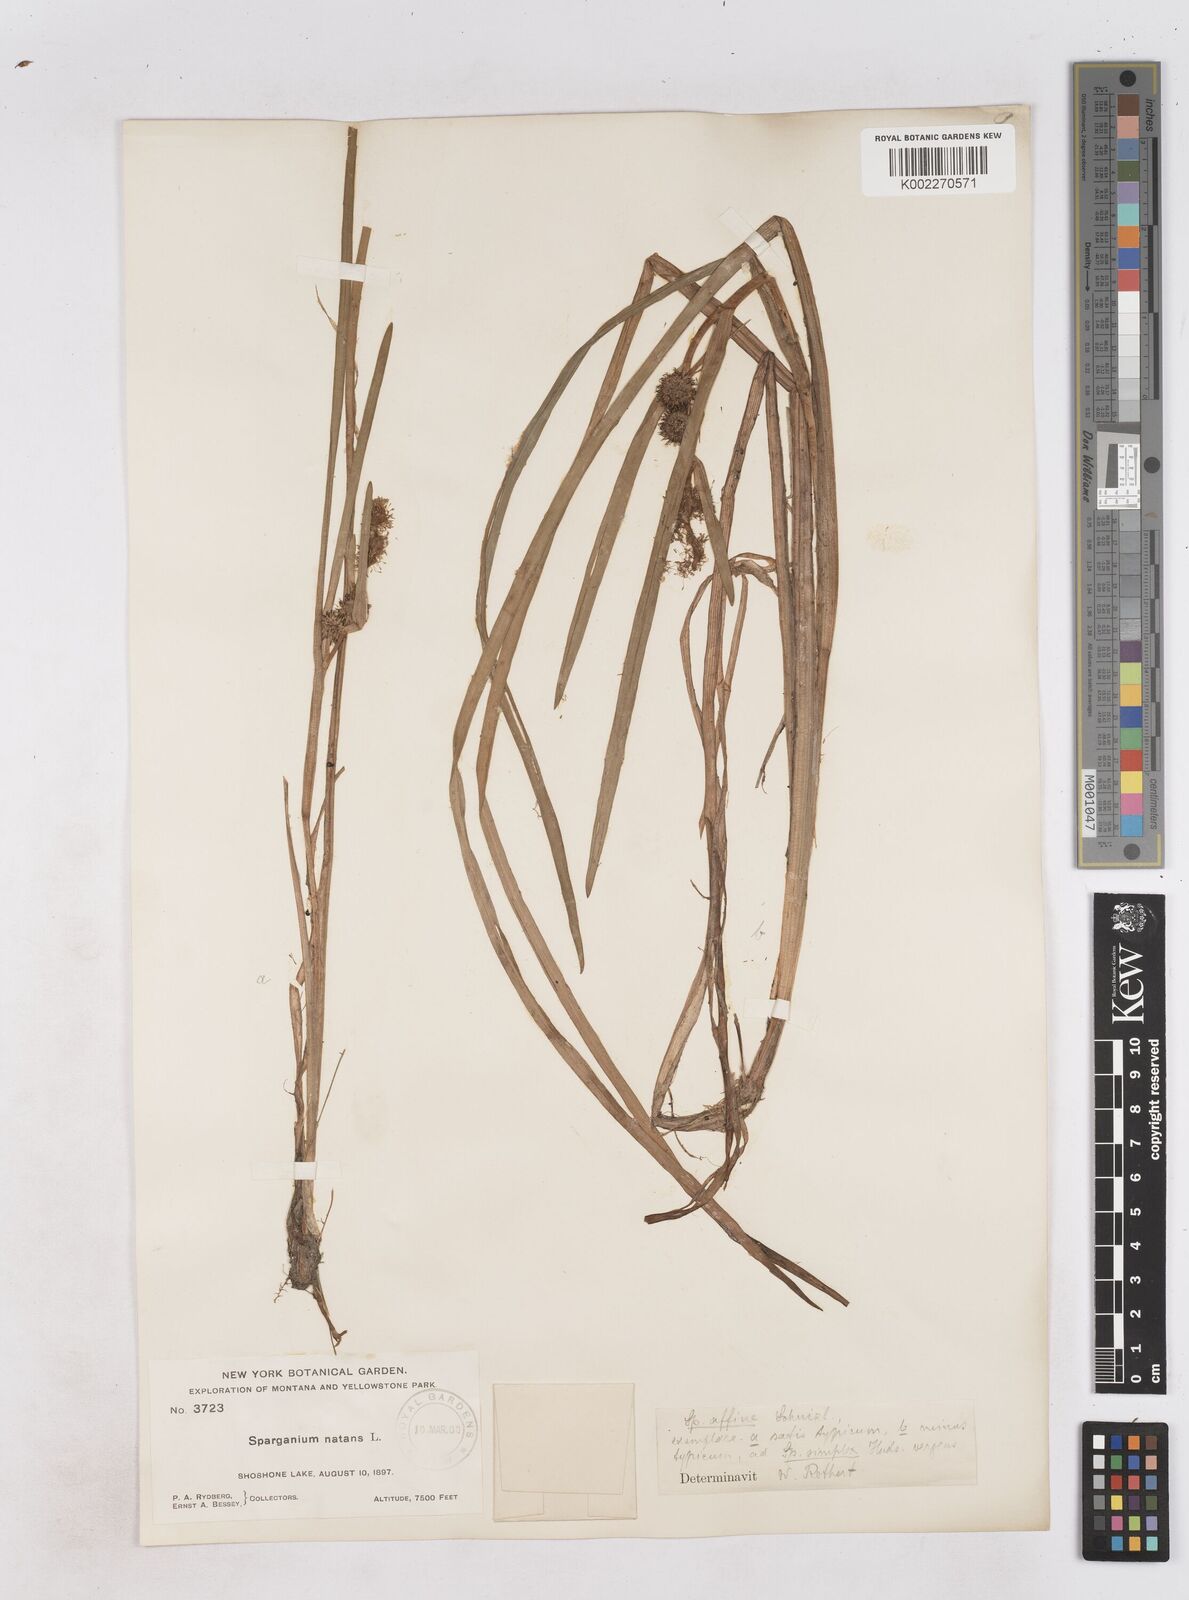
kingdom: Plantae
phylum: Tracheophyta
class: Liliopsida
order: Poales
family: Typhaceae
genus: Sparganium
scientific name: Sparganium angustifolium
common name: Floating bur-reed
